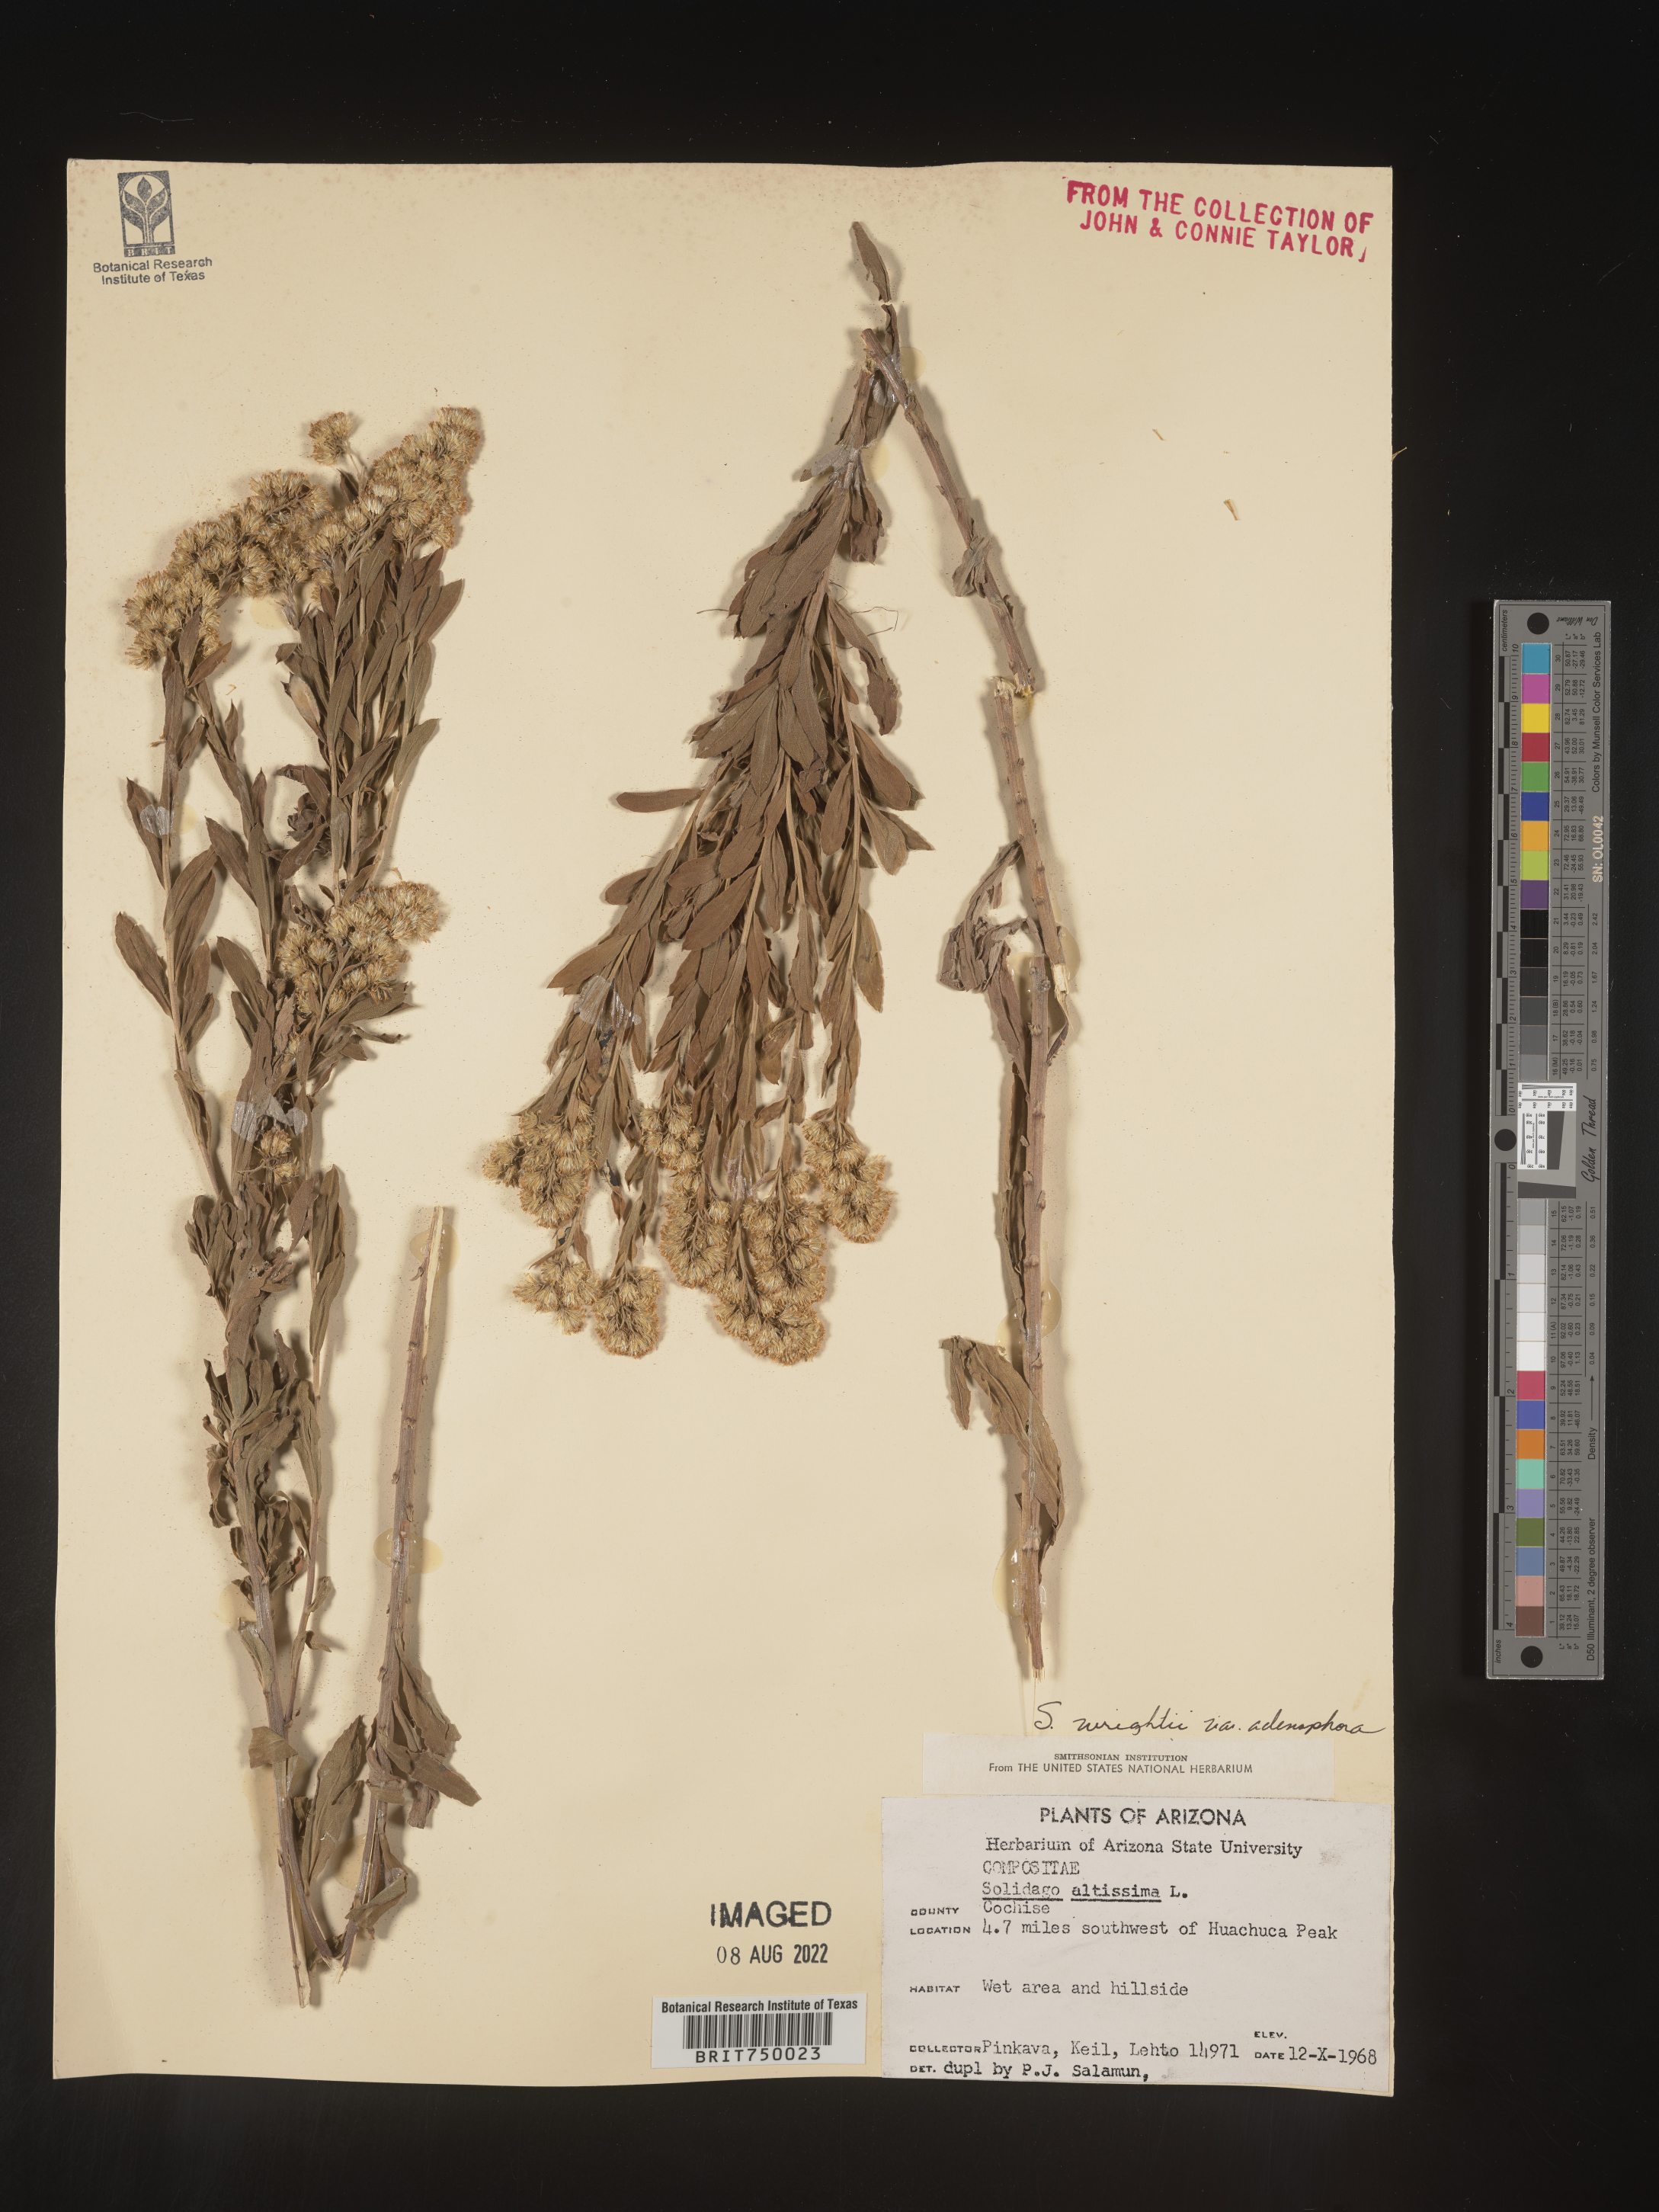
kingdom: Plantae
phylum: Tracheophyta
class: Magnoliopsida
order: Asterales
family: Asteraceae
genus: Solidago
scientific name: Solidago wrightii
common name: Wright's goldenrod
